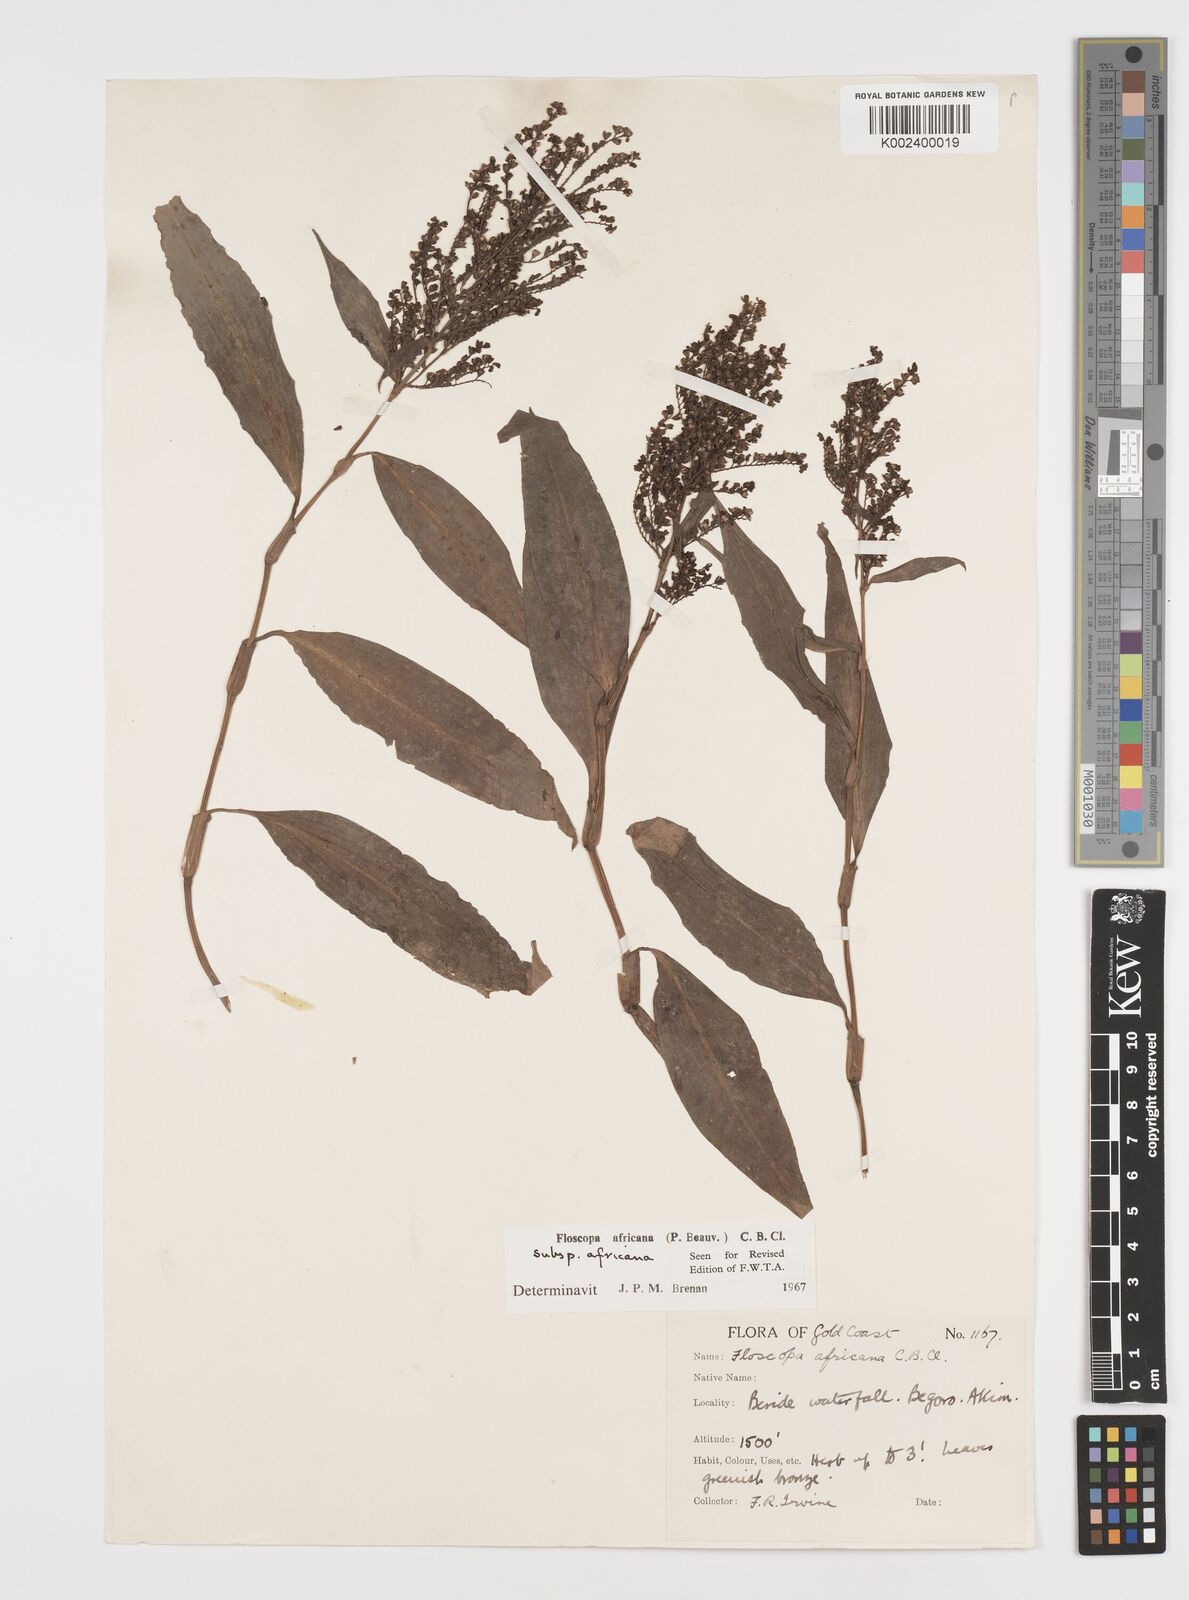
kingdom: Plantae
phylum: Tracheophyta
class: Liliopsida
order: Commelinales
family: Commelinaceae
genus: Floscopa
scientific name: Floscopa africana
